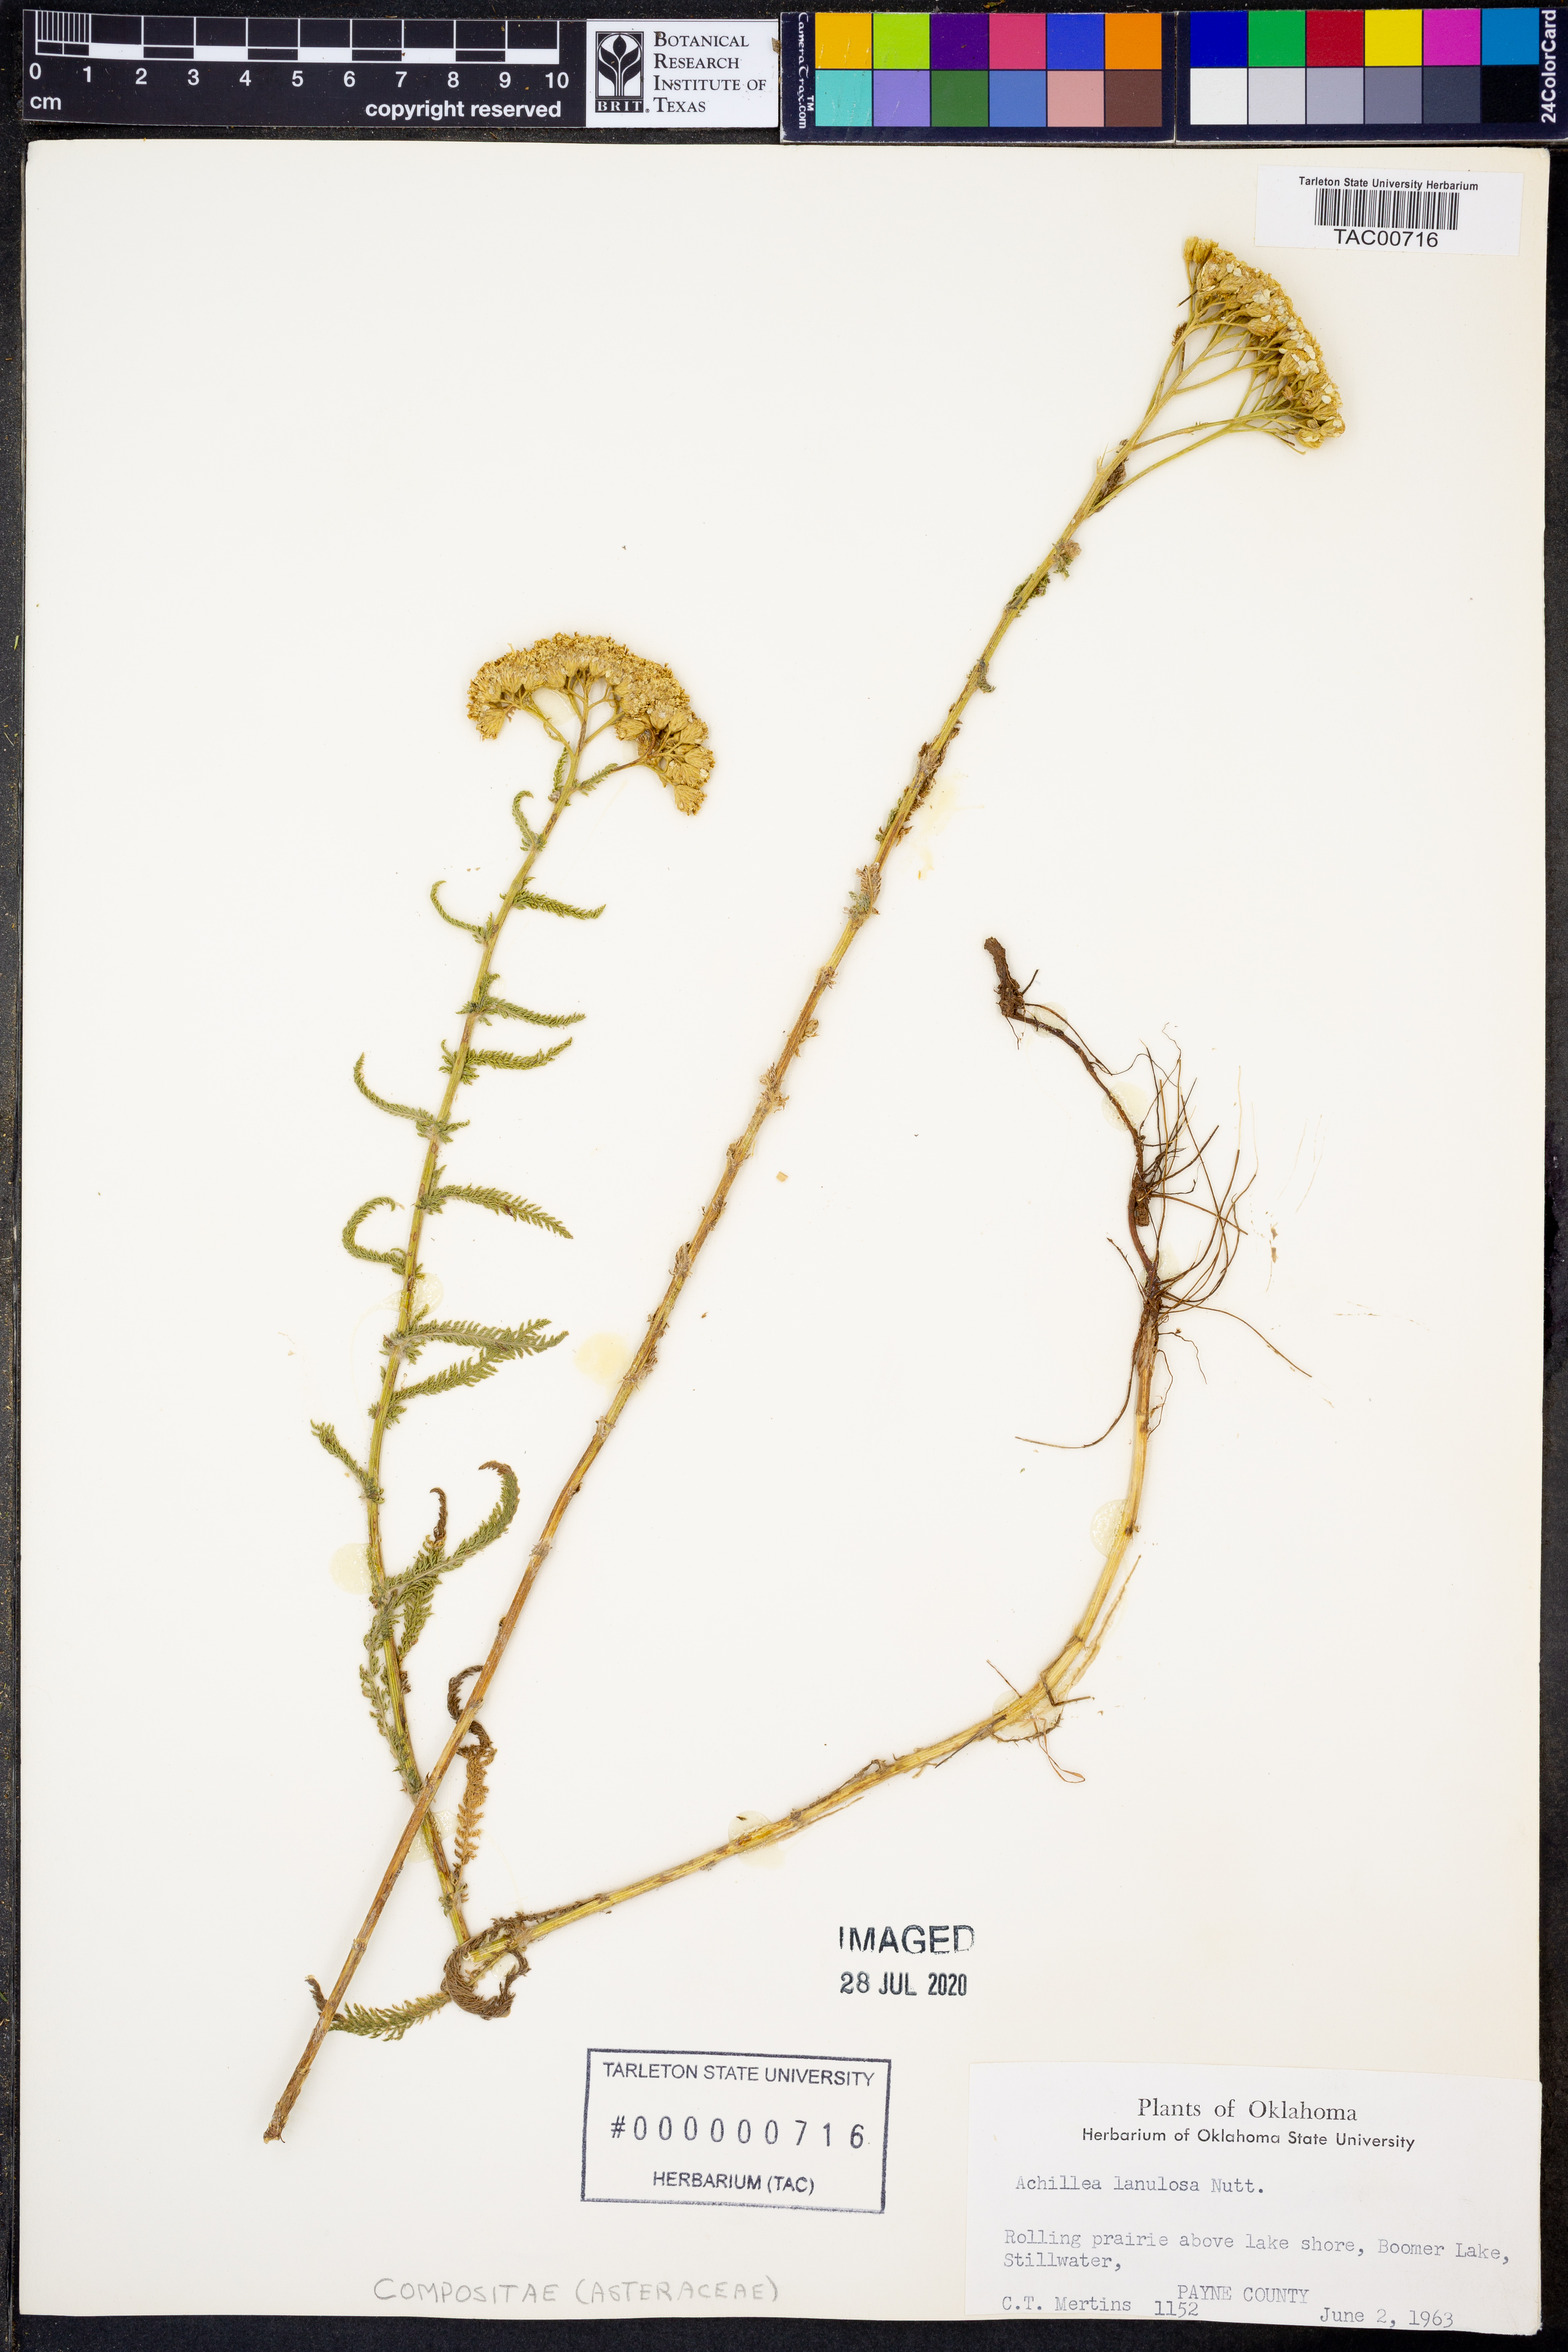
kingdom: Plantae
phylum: Tracheophyta
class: Magnoliopsida
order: Asterales
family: Asteraceae
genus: Achillea
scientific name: Achillea millefolium
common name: Yarrow
